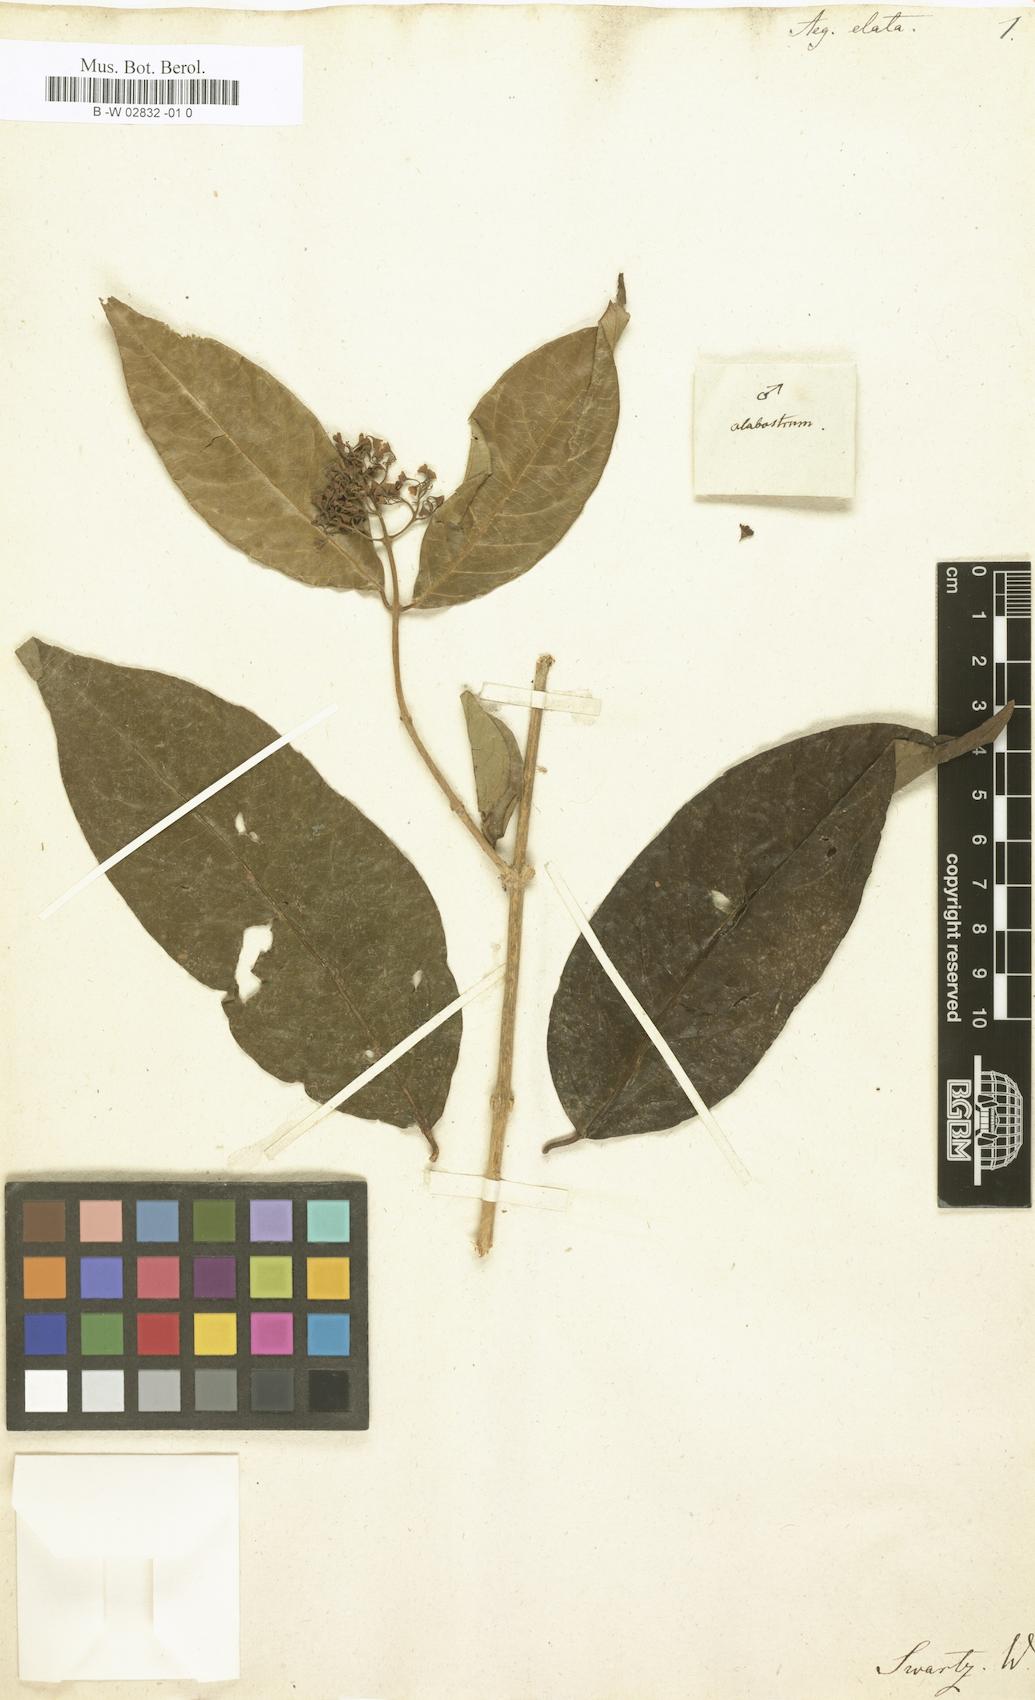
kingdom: Plantae
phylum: Tracheophyta
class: Magnoliopsida
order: Lamiales
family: Lamiaceae
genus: Aegiphila
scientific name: Aegiphila elata
